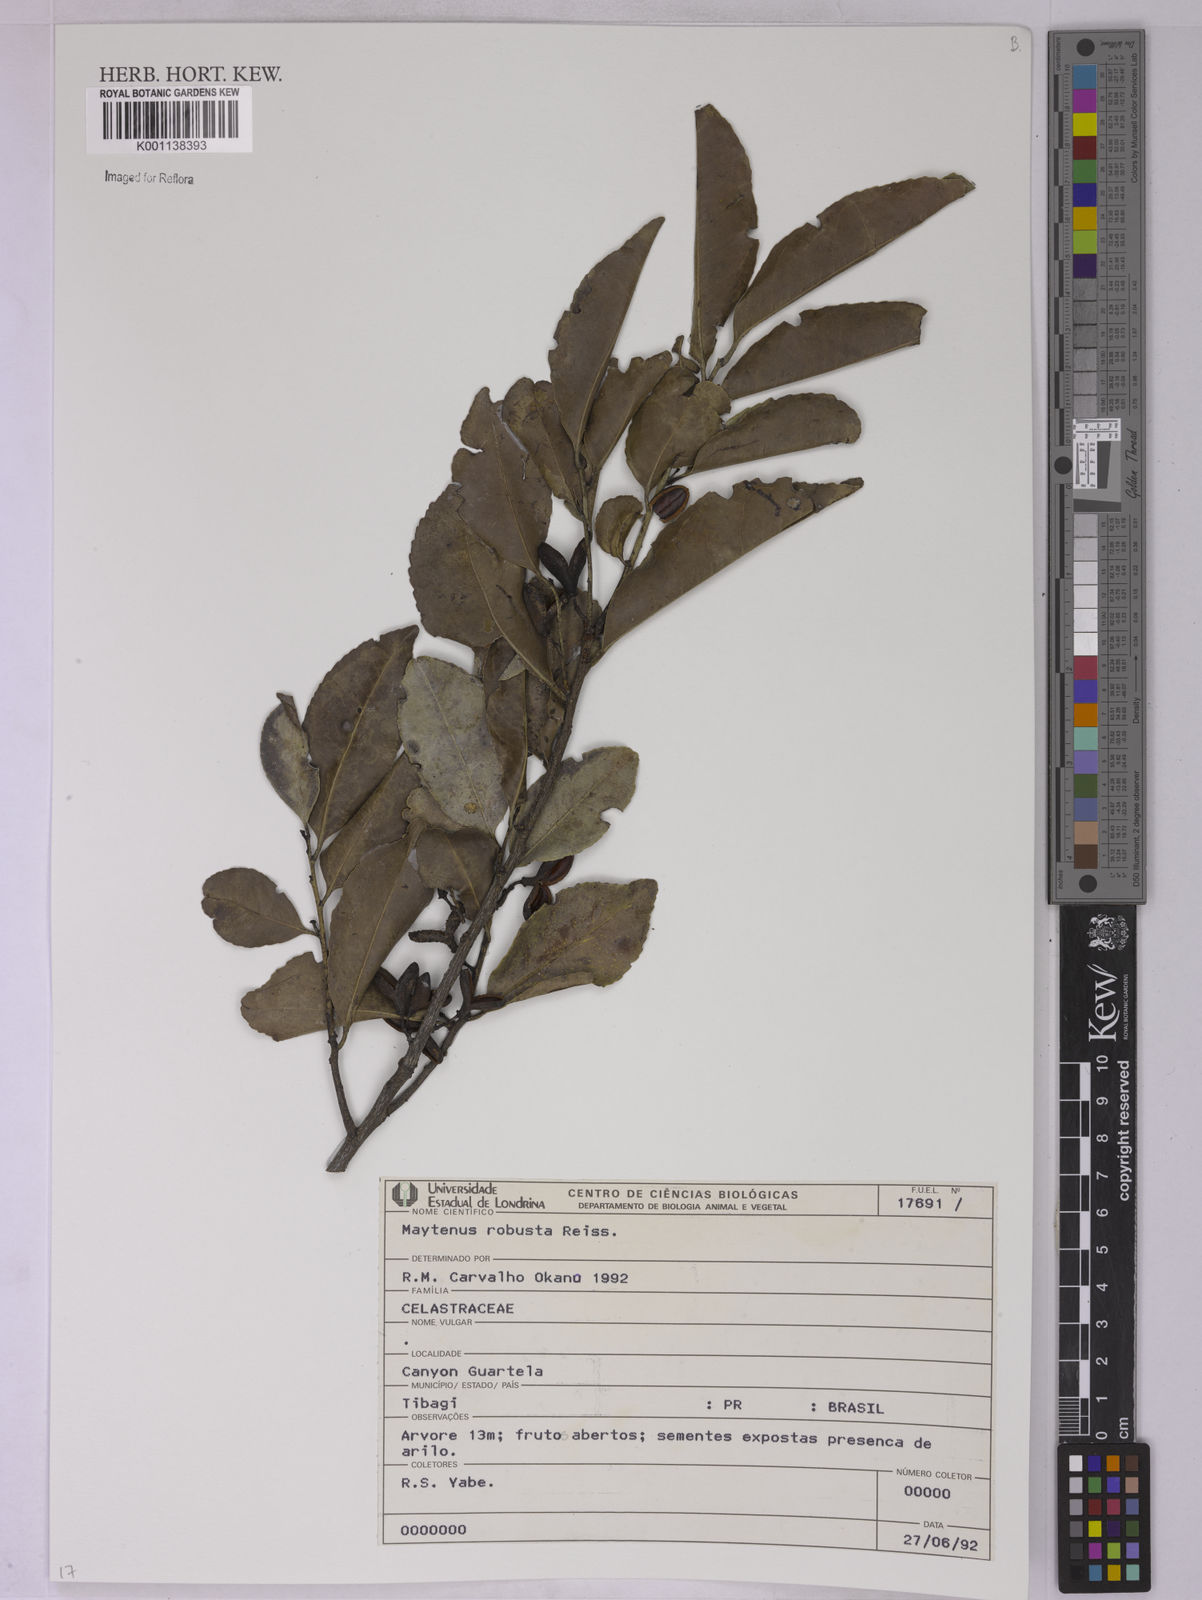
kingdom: Plantae
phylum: Tracheophyta
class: Magnoliopsida
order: Celastrales
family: Celastraceae
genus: Monteverdia
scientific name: Monteverdia robusta
